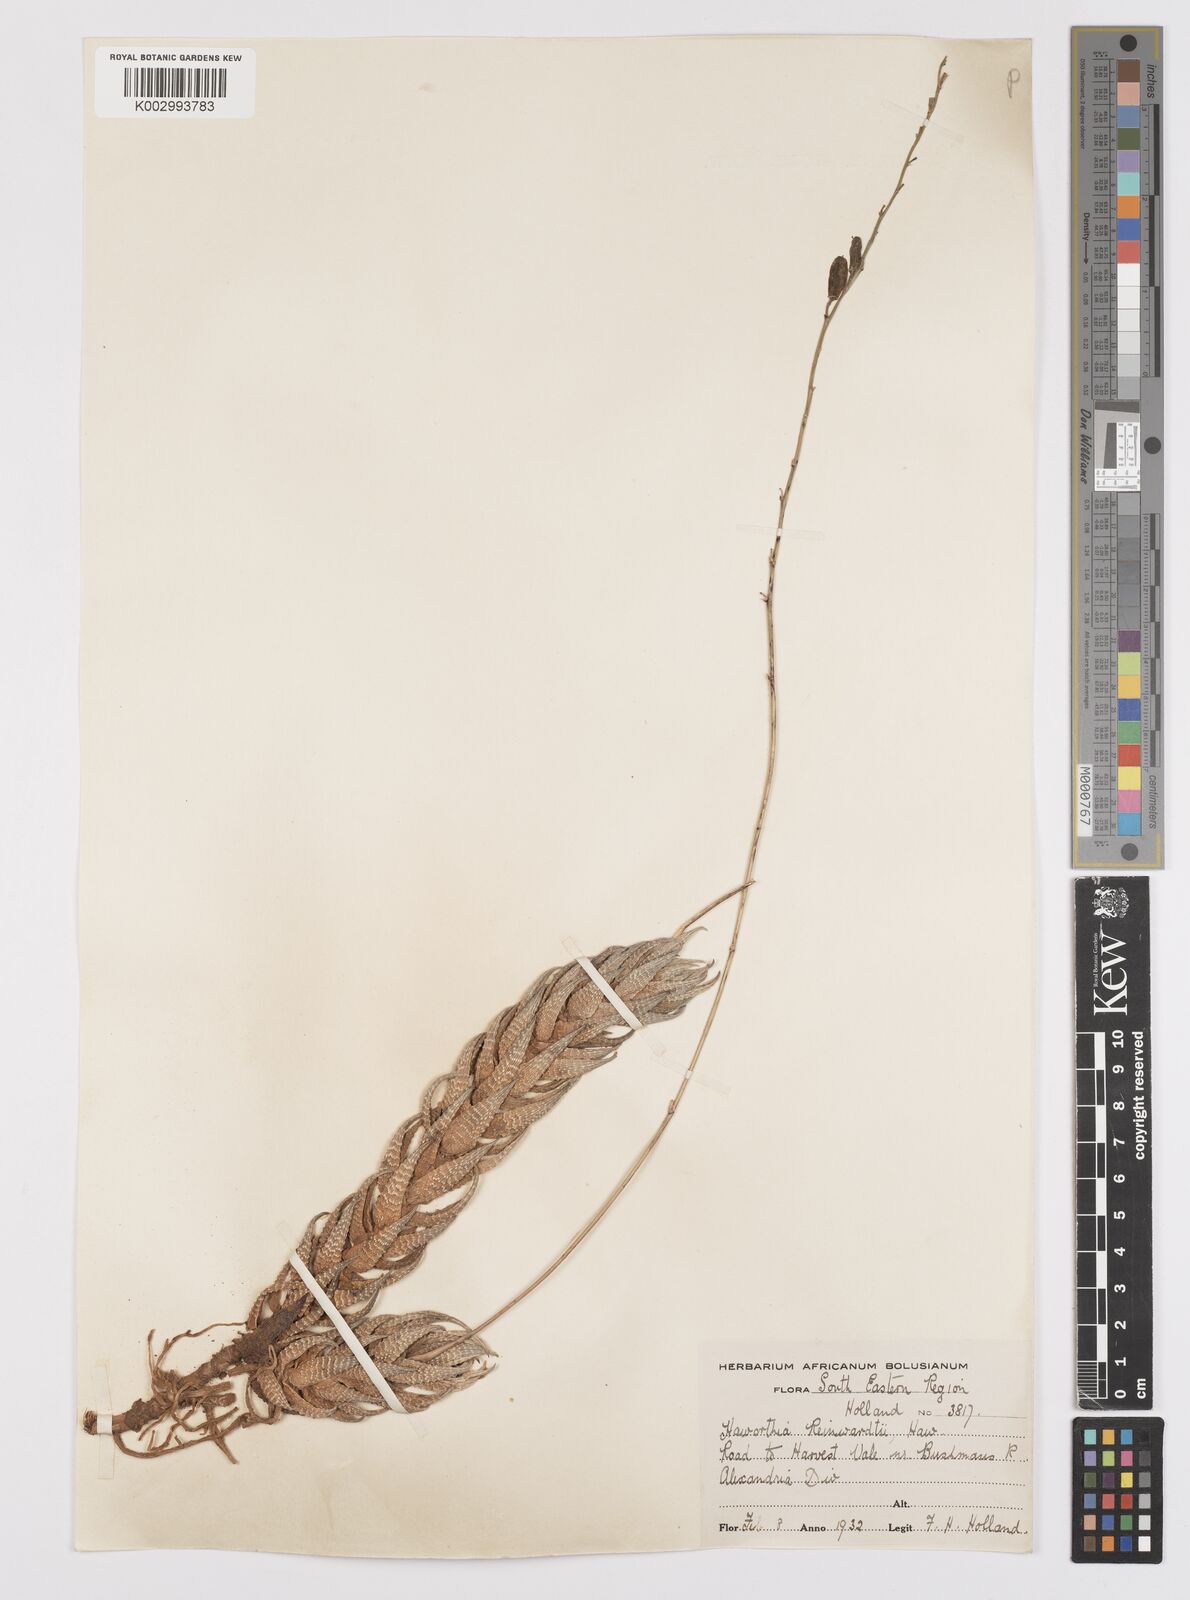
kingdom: Plantae
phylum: Tracheophyta
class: Liliopsida
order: Asparagales
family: Asphodelaceae
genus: Haworthiopsis
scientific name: Haworthiopsis reinwardtii
